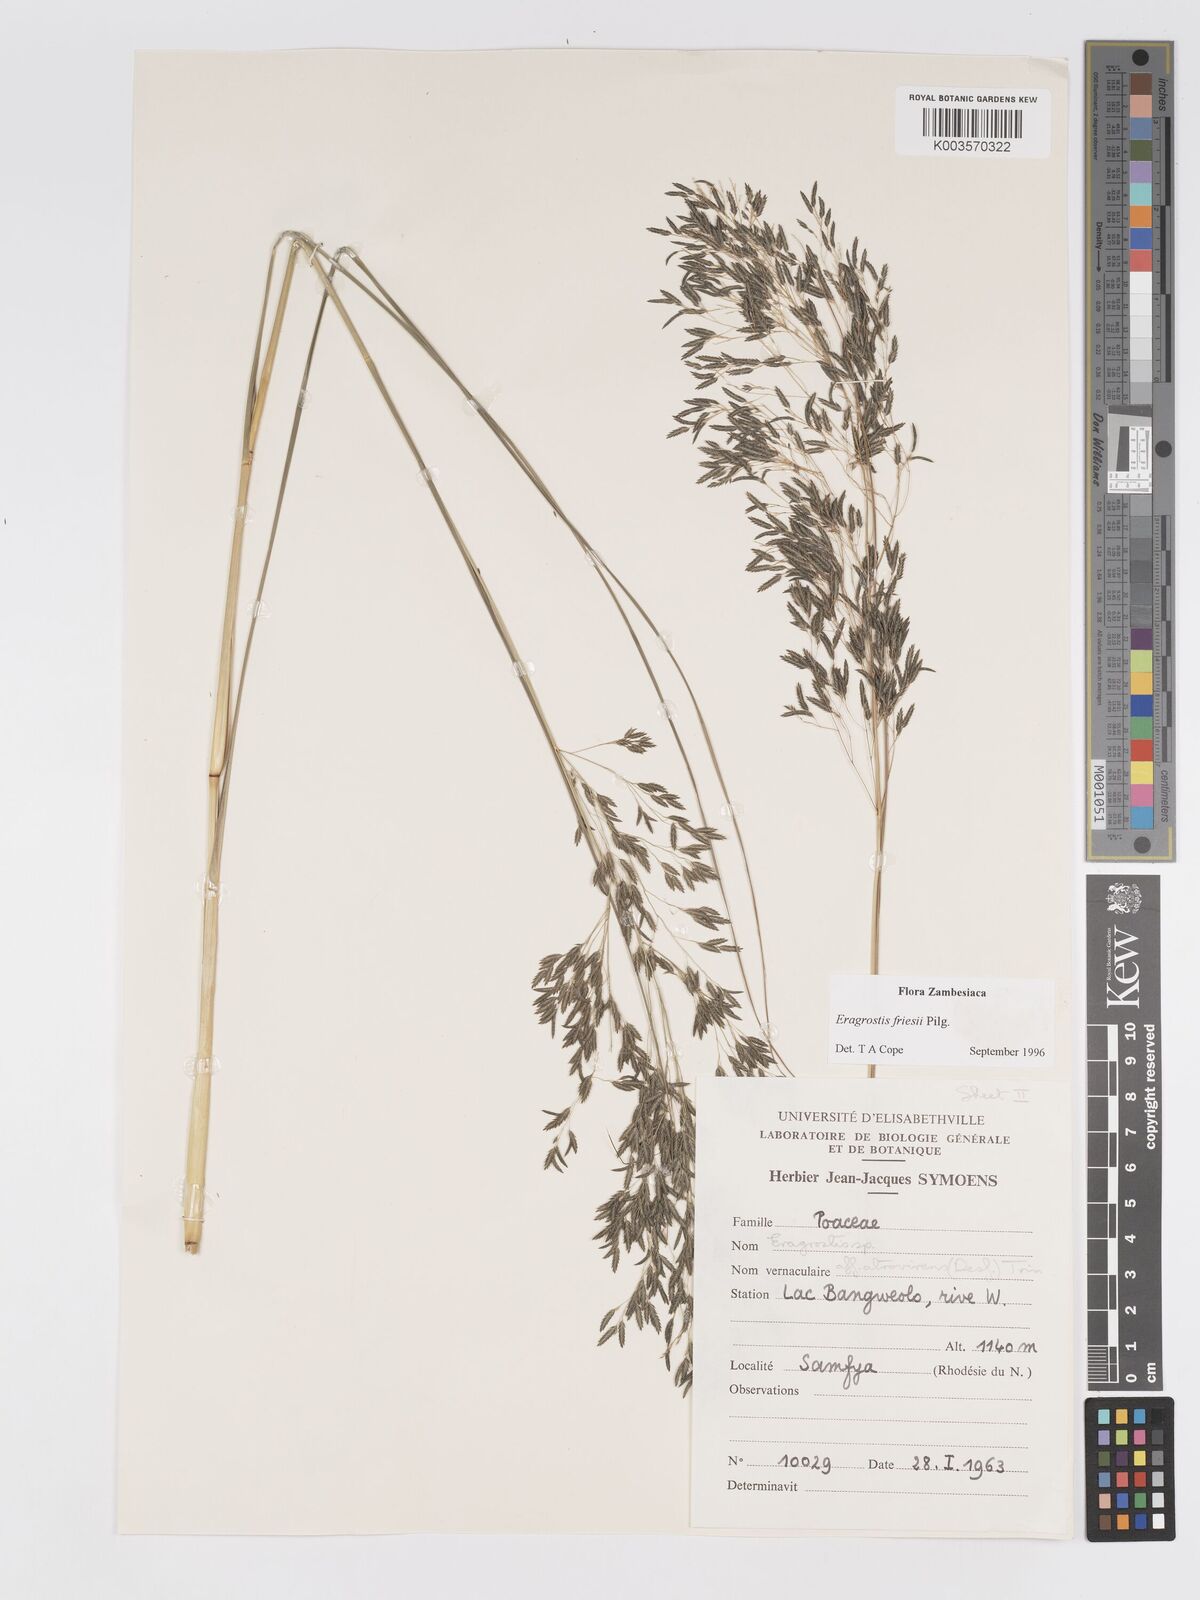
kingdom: Plantae
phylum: Tracheophyta
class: Liliopsida
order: Poales
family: Poaceae
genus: Eragrostis
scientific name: Eragrostis friesii
